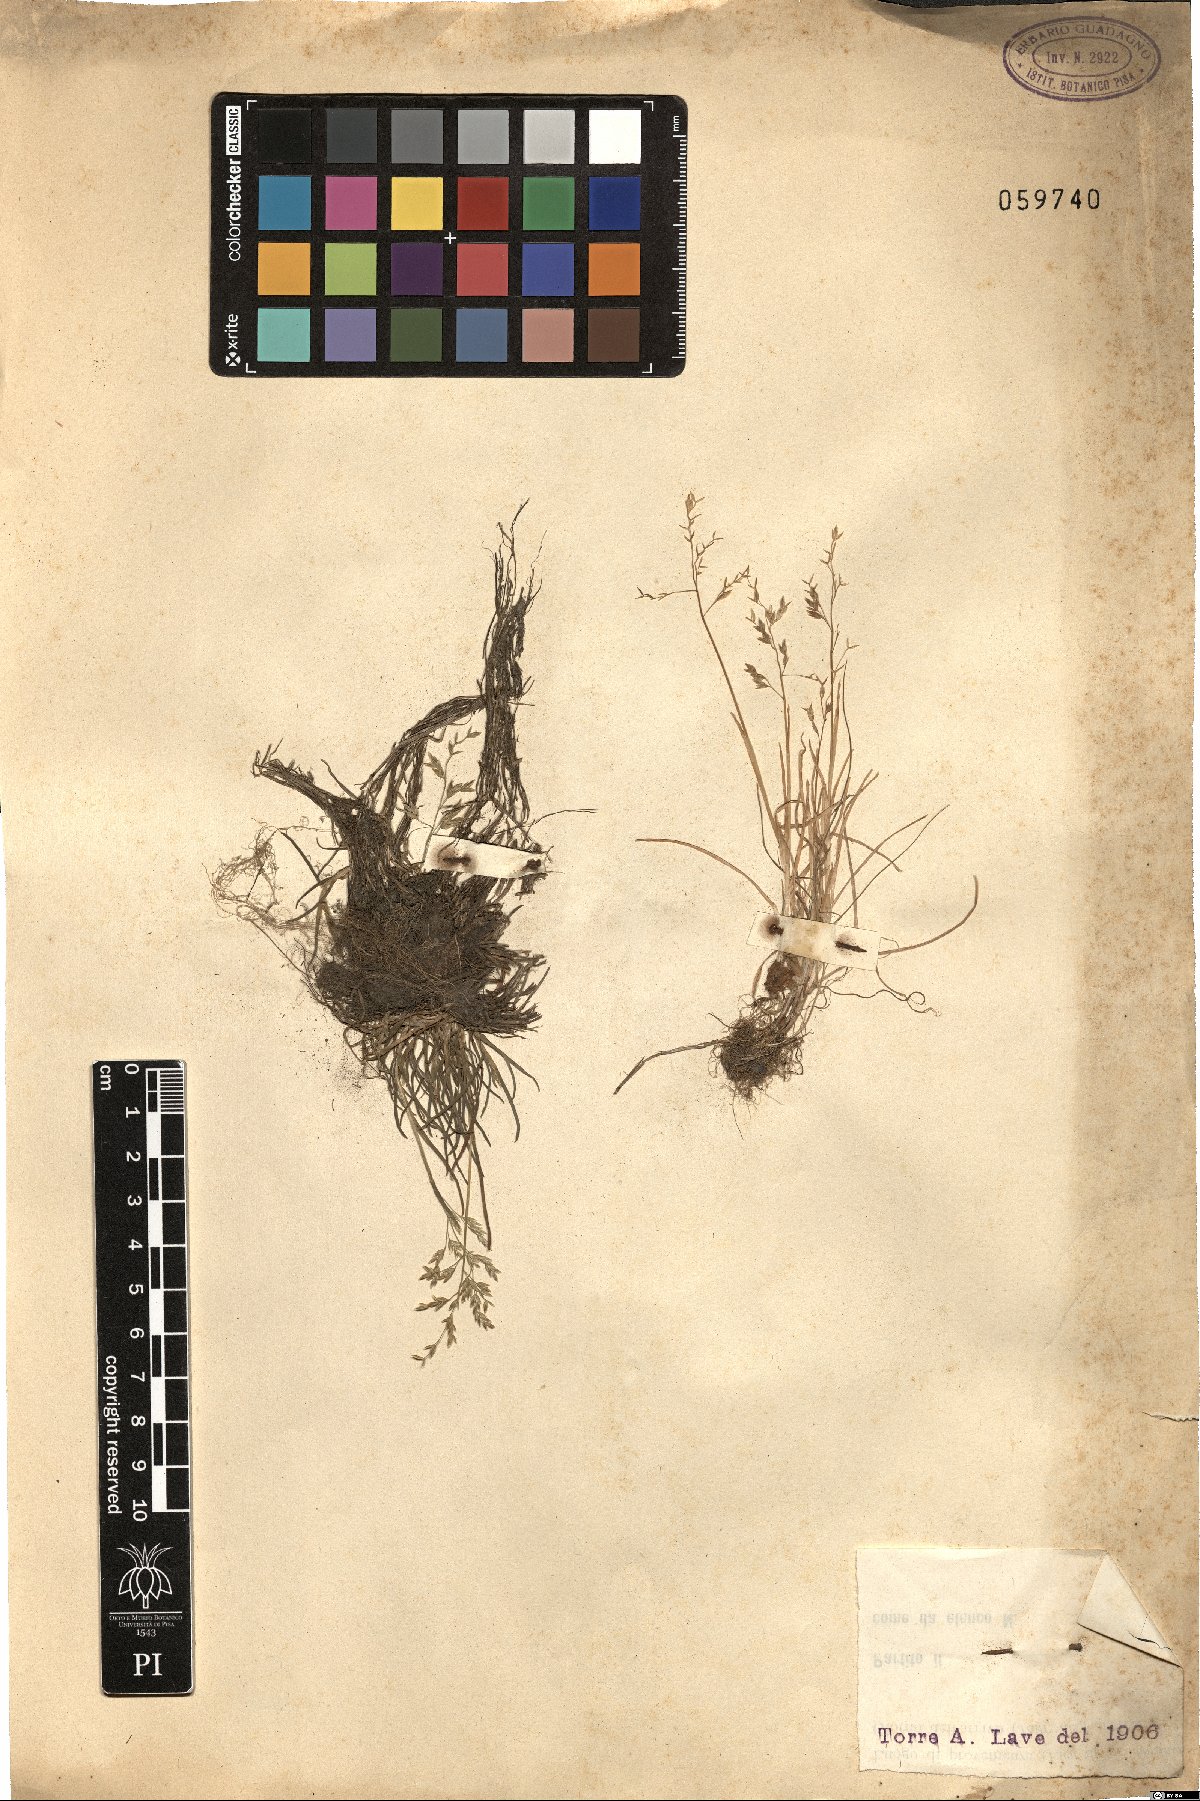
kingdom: Plantae
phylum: Tracheophyta
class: Liliopsida
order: Poales
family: Poaceae
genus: Poa
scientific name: Poa
